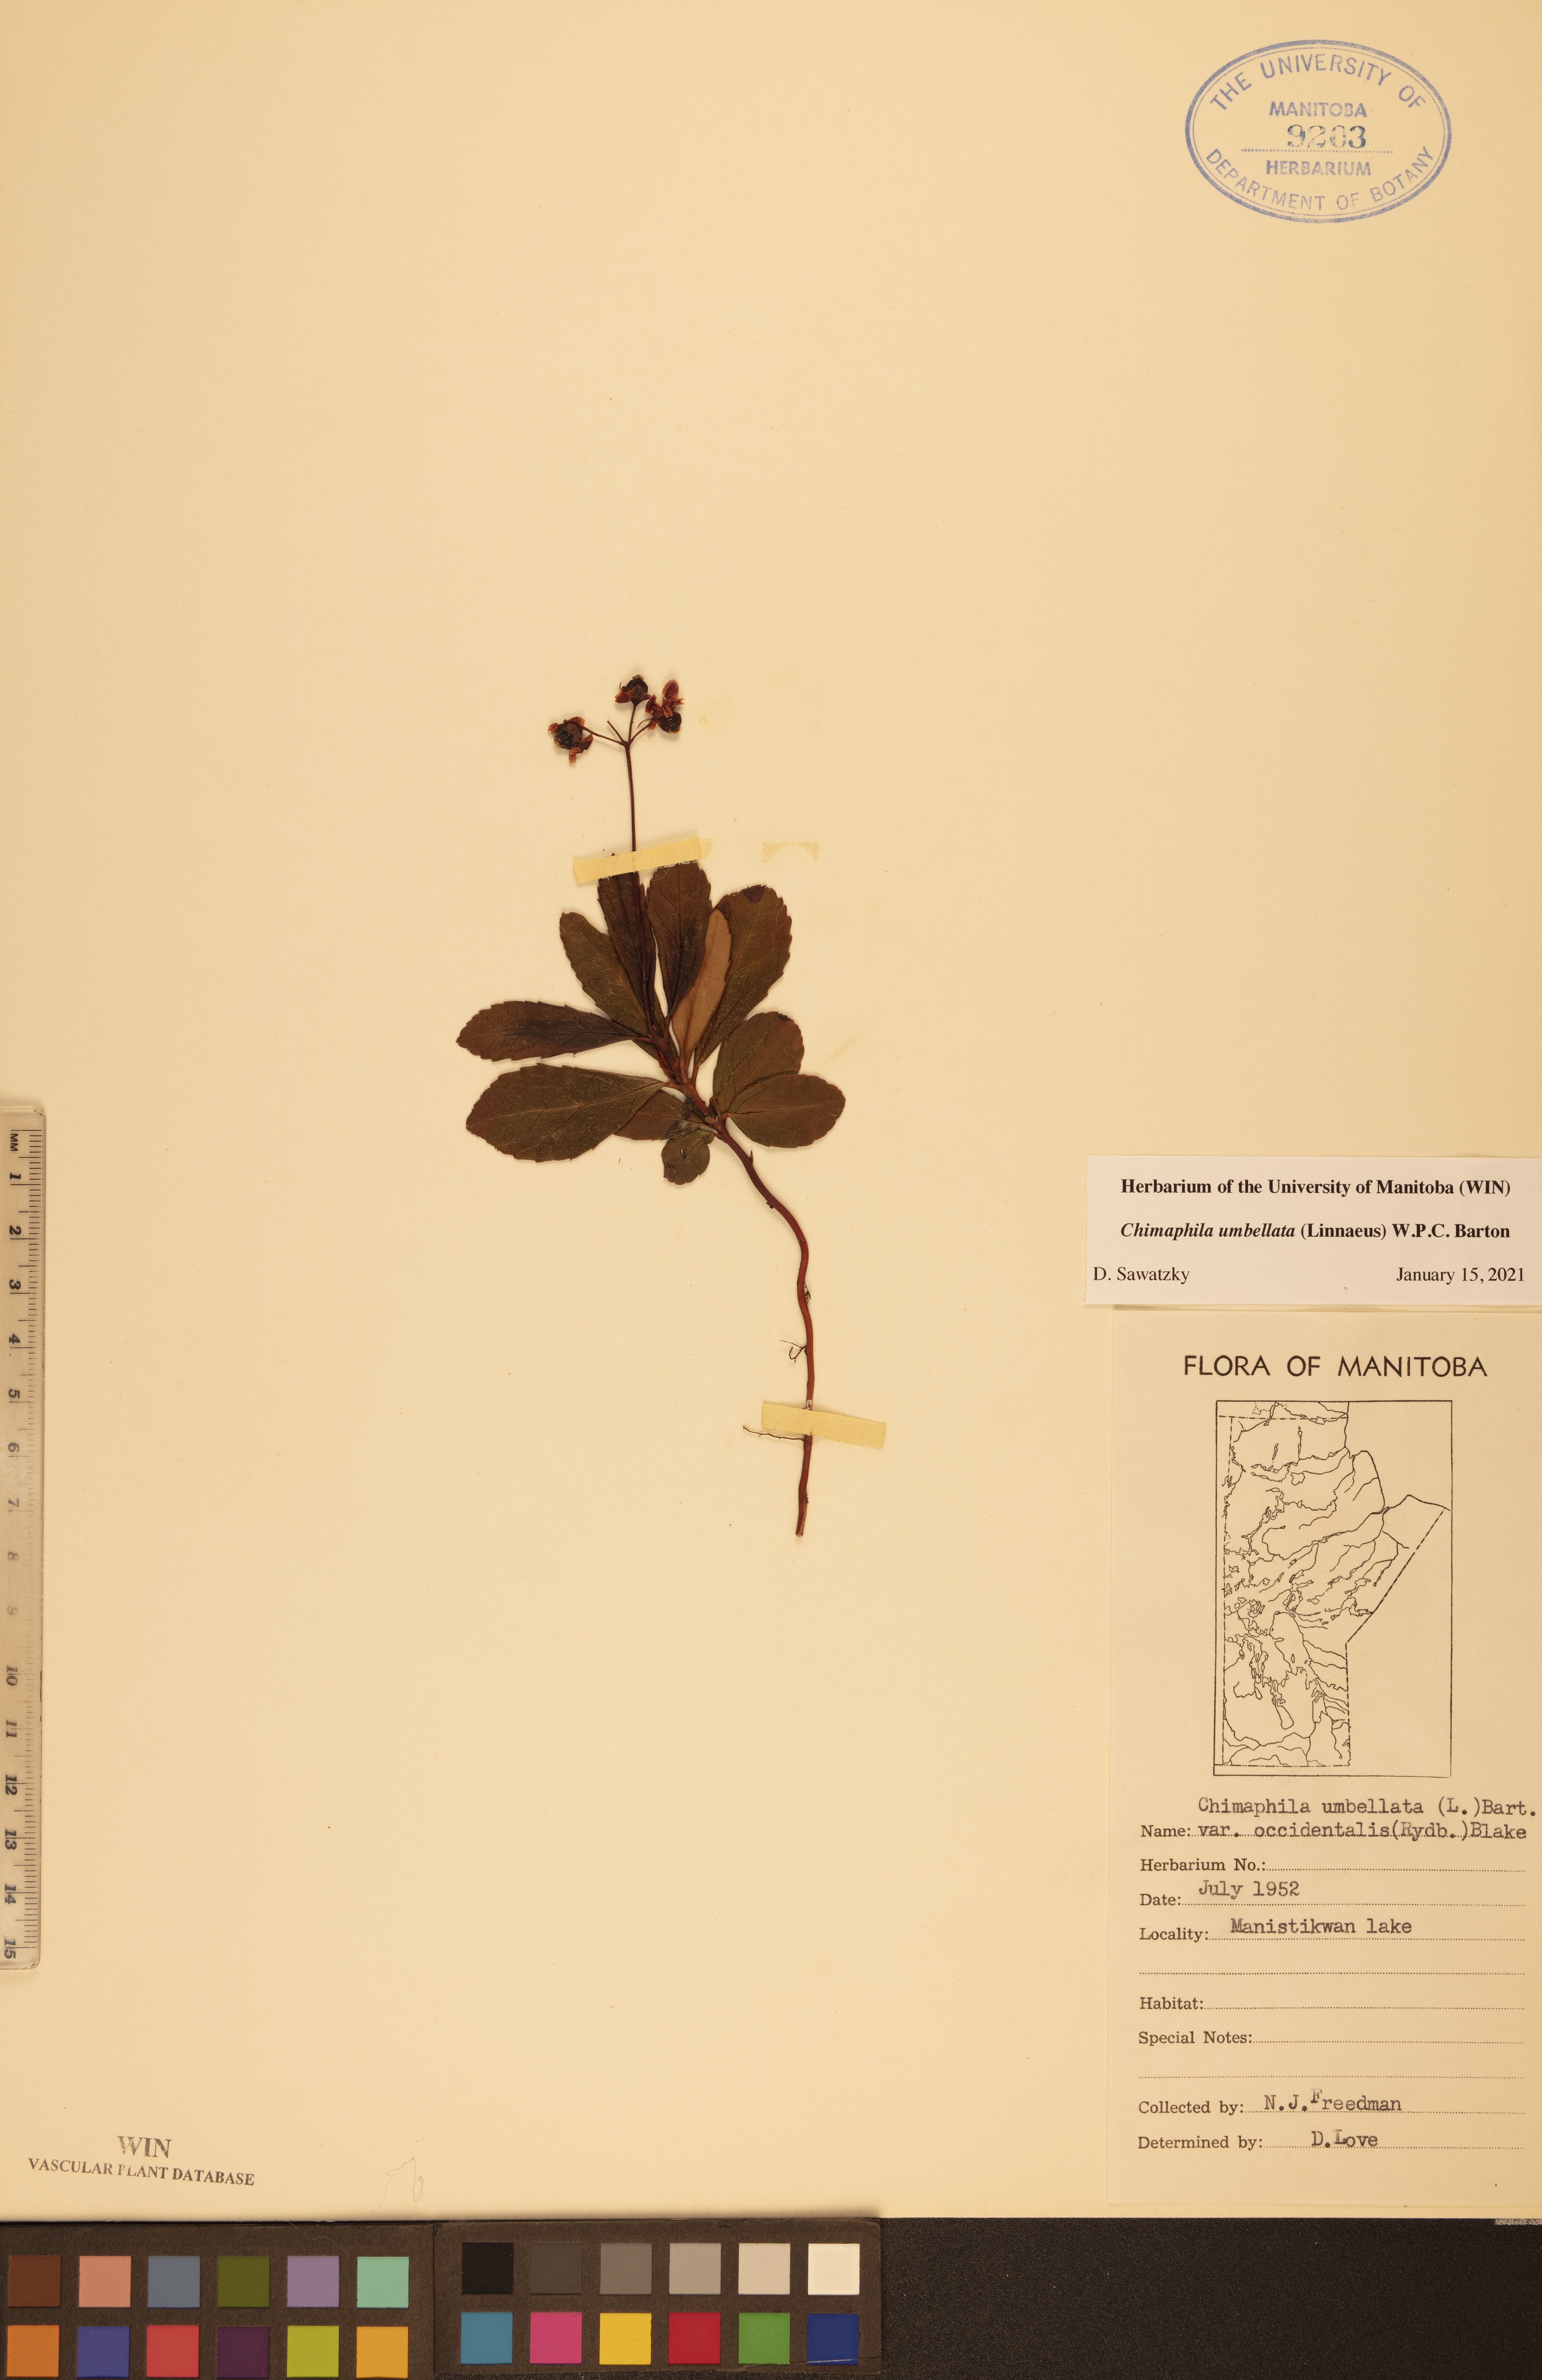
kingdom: Plantae
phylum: Tracheophyta
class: Magnoliopsida
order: Ericales
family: Ericaceae
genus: Chimaphila
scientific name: Chimaphila umbellata
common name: Pipsissewa
